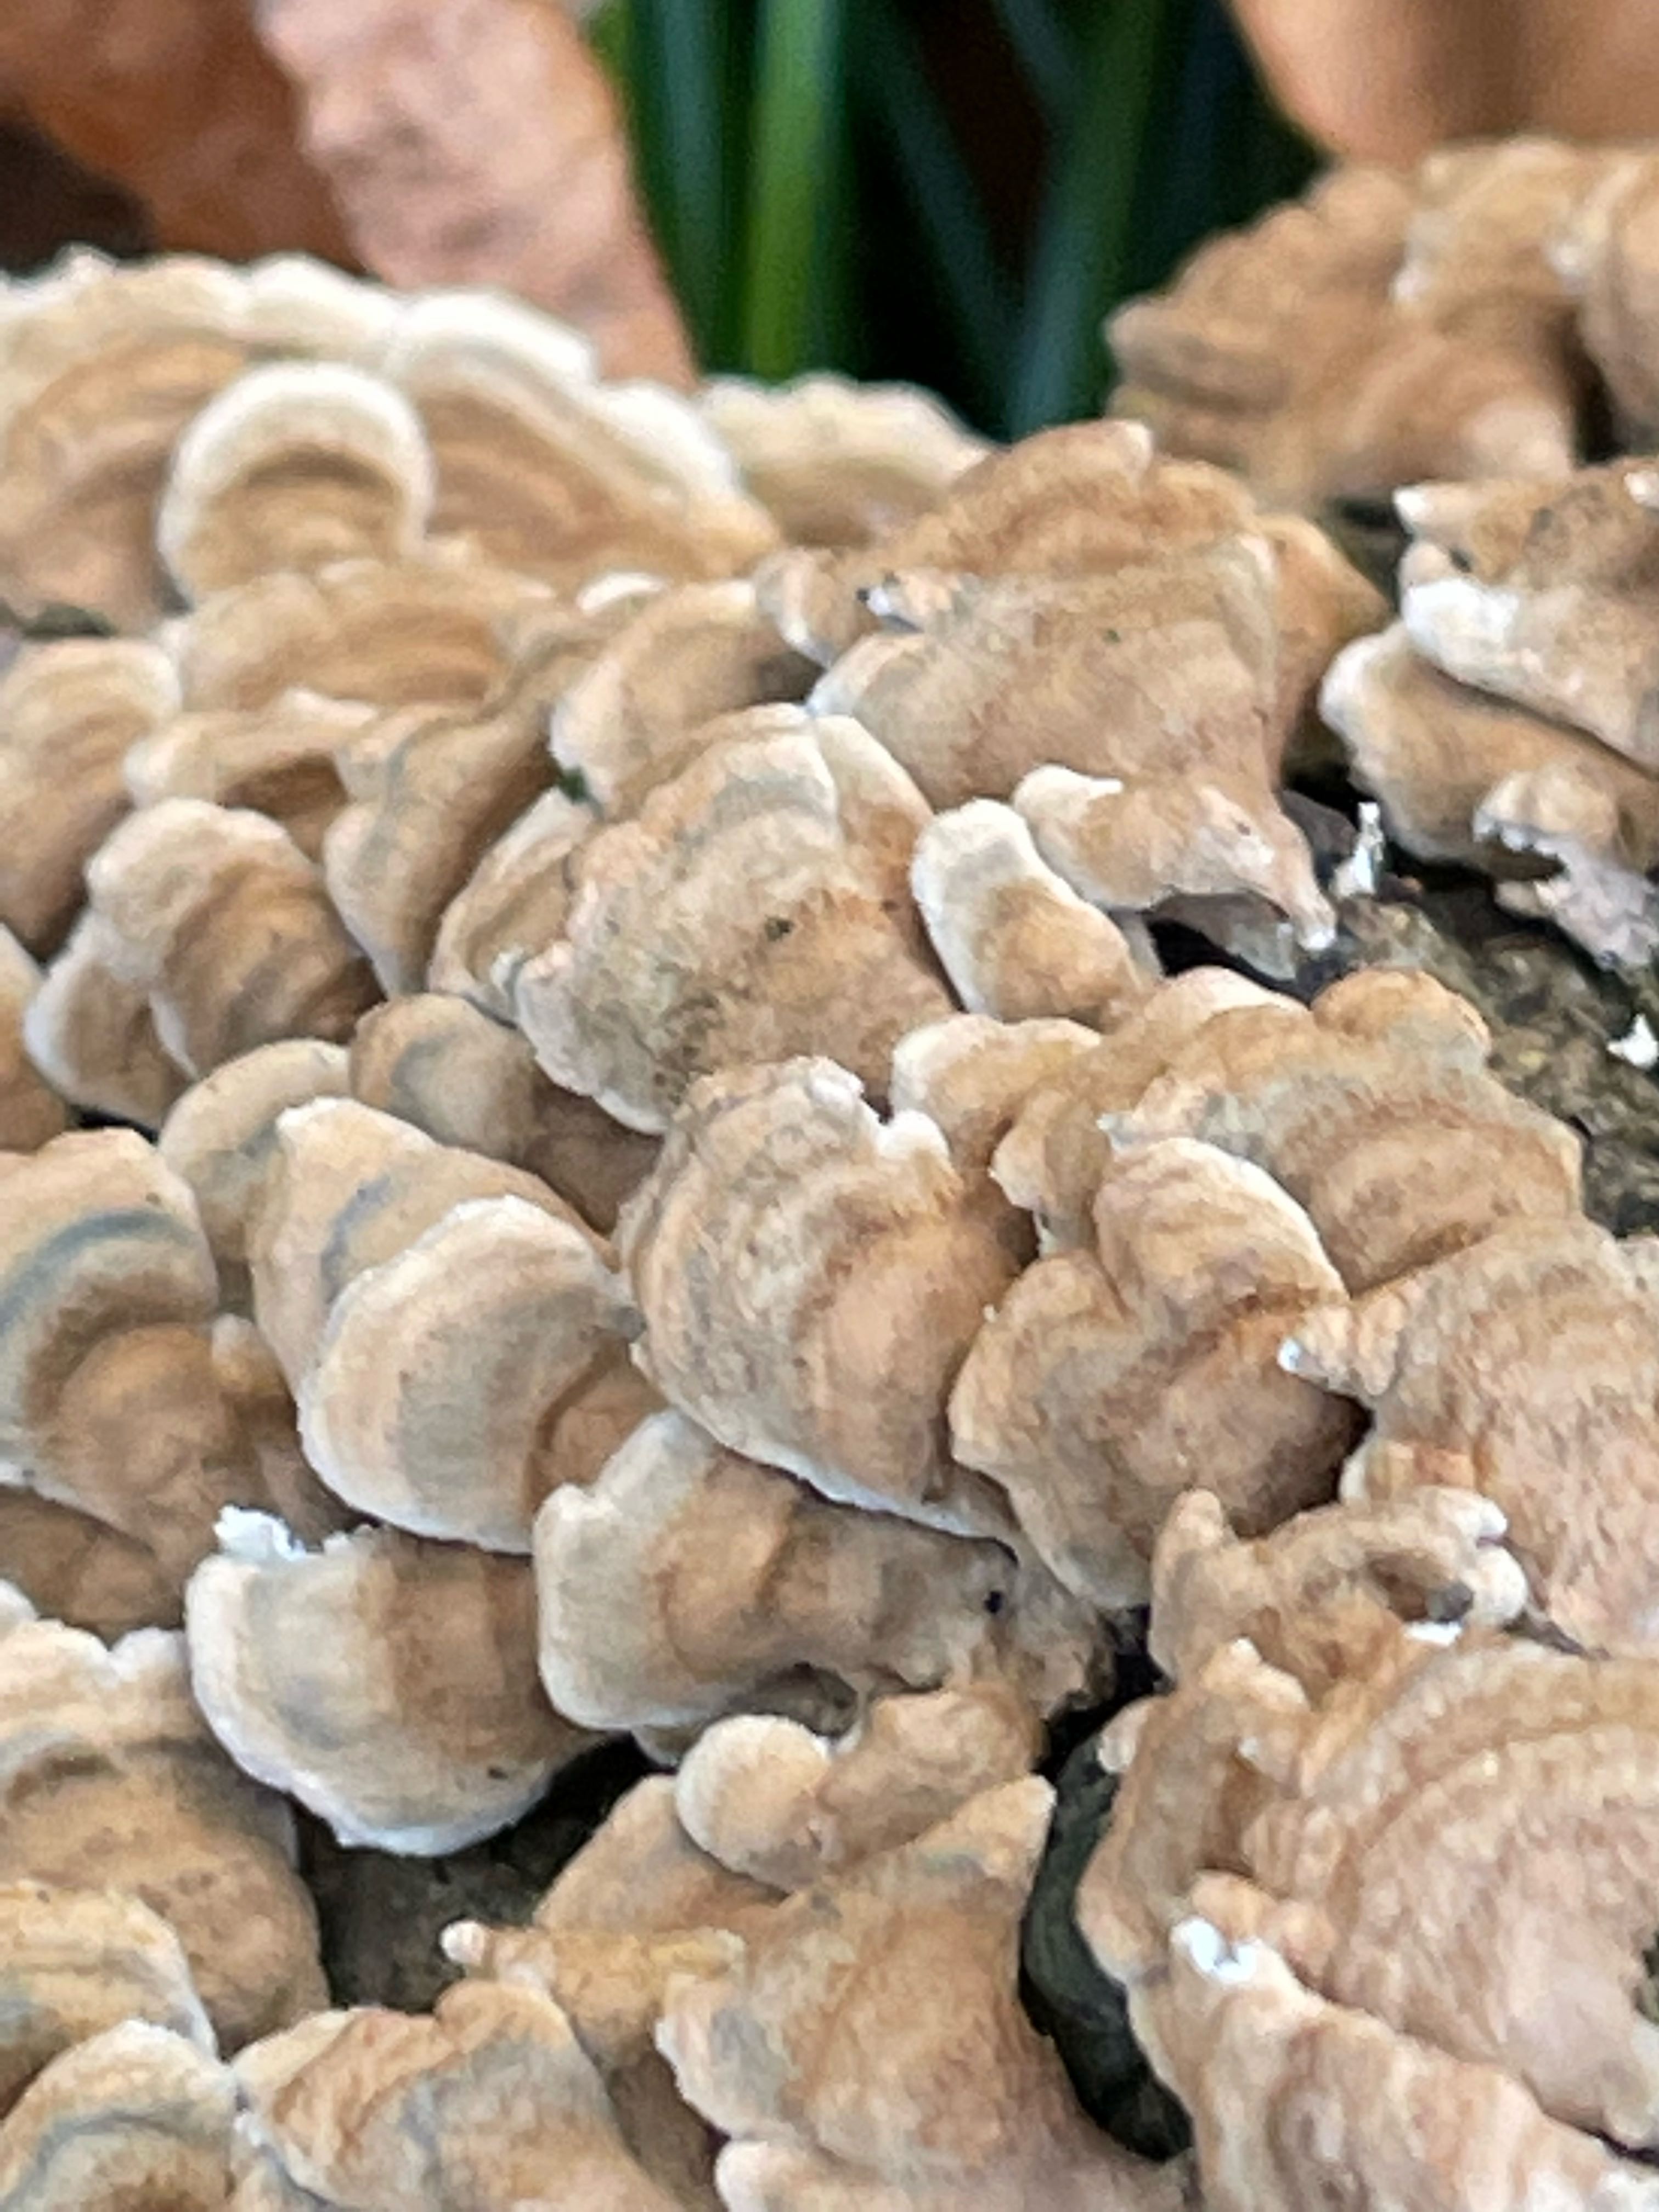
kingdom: Fungi
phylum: Basidiomycota
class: Agaricomycetes
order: Amylocorticiales
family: Amylocorticiaceae
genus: Plicaturopsis
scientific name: Plicaturopsis crispa
